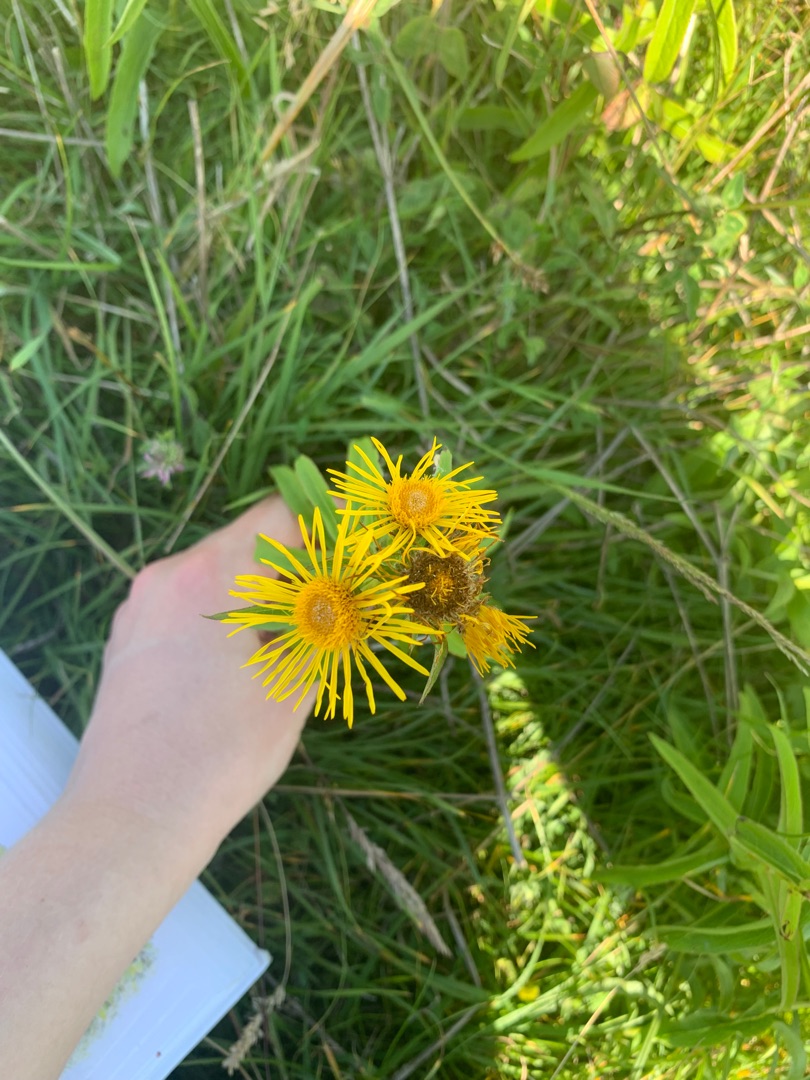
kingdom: Plantae
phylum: Tracheophyta
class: Magnoliopsida
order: Asterales
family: Asteraceae
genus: Pentanema
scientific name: Pentanema salicinum
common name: Pile-alant
